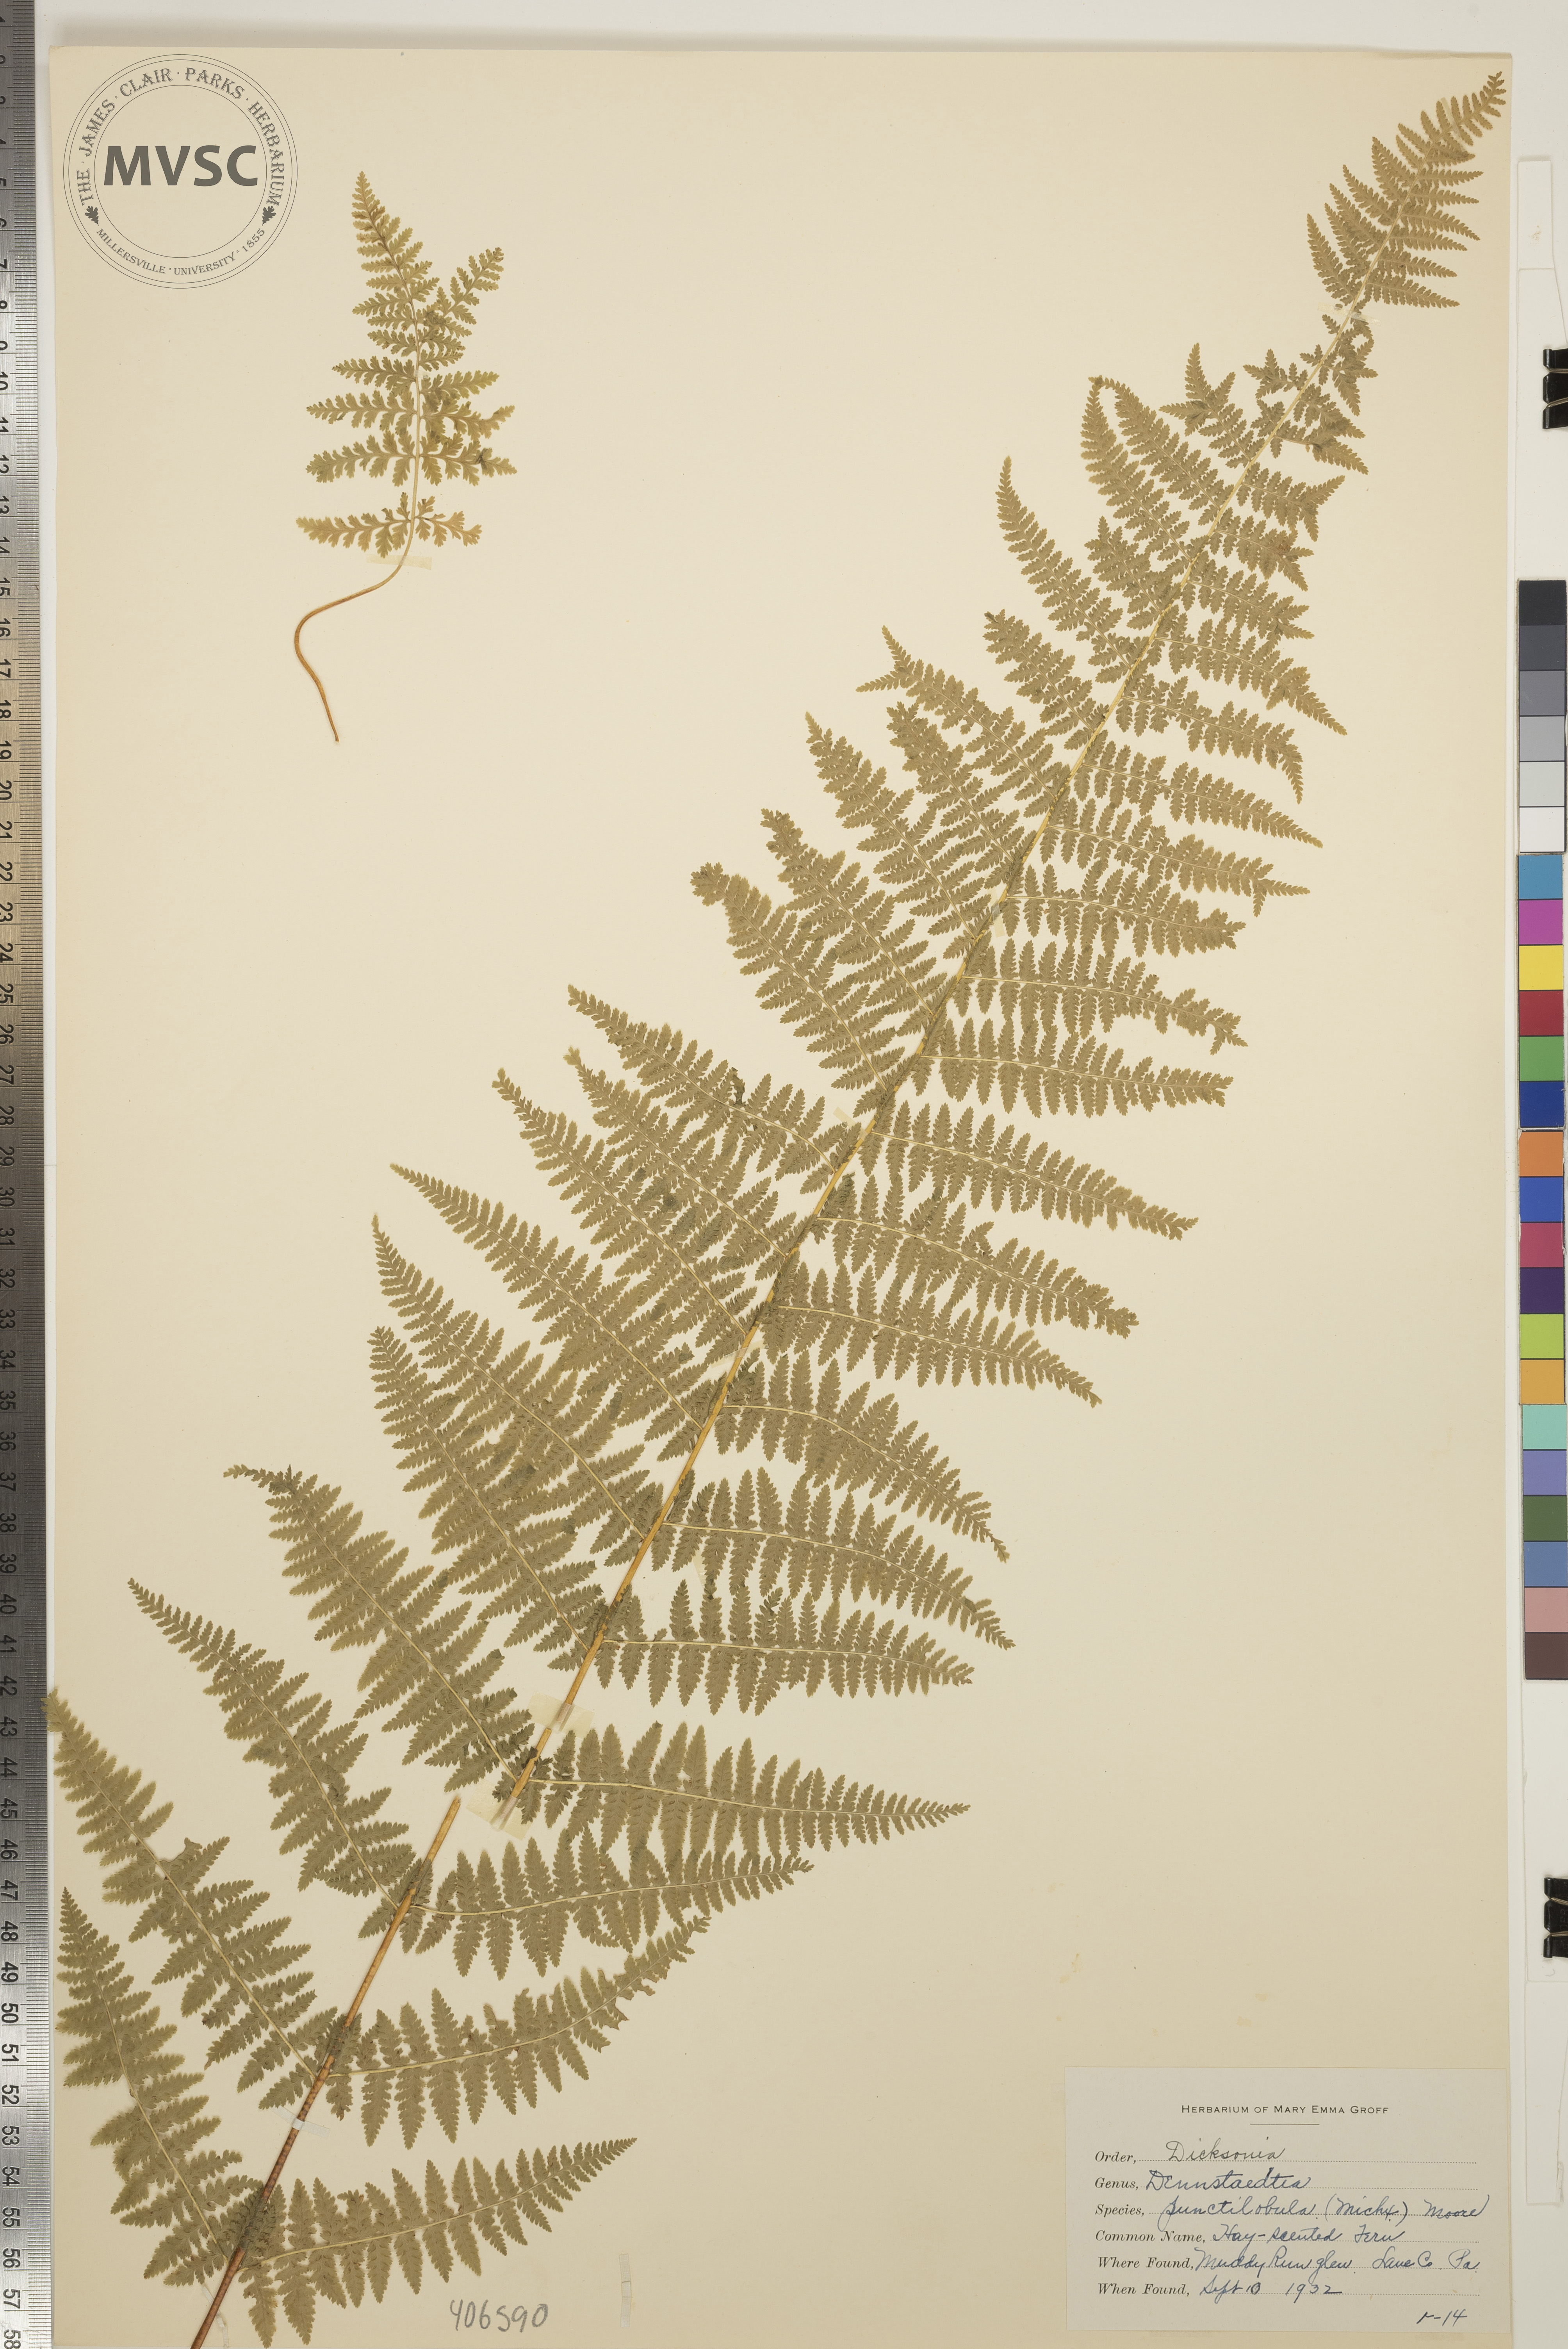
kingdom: Plantae
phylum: Tracheophyta
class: Polypodiopsida
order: Polypodiales
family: Dennstaedtiaceae
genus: Sitobolium
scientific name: Sitobolium punctilobum
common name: Hay-scented Fern
